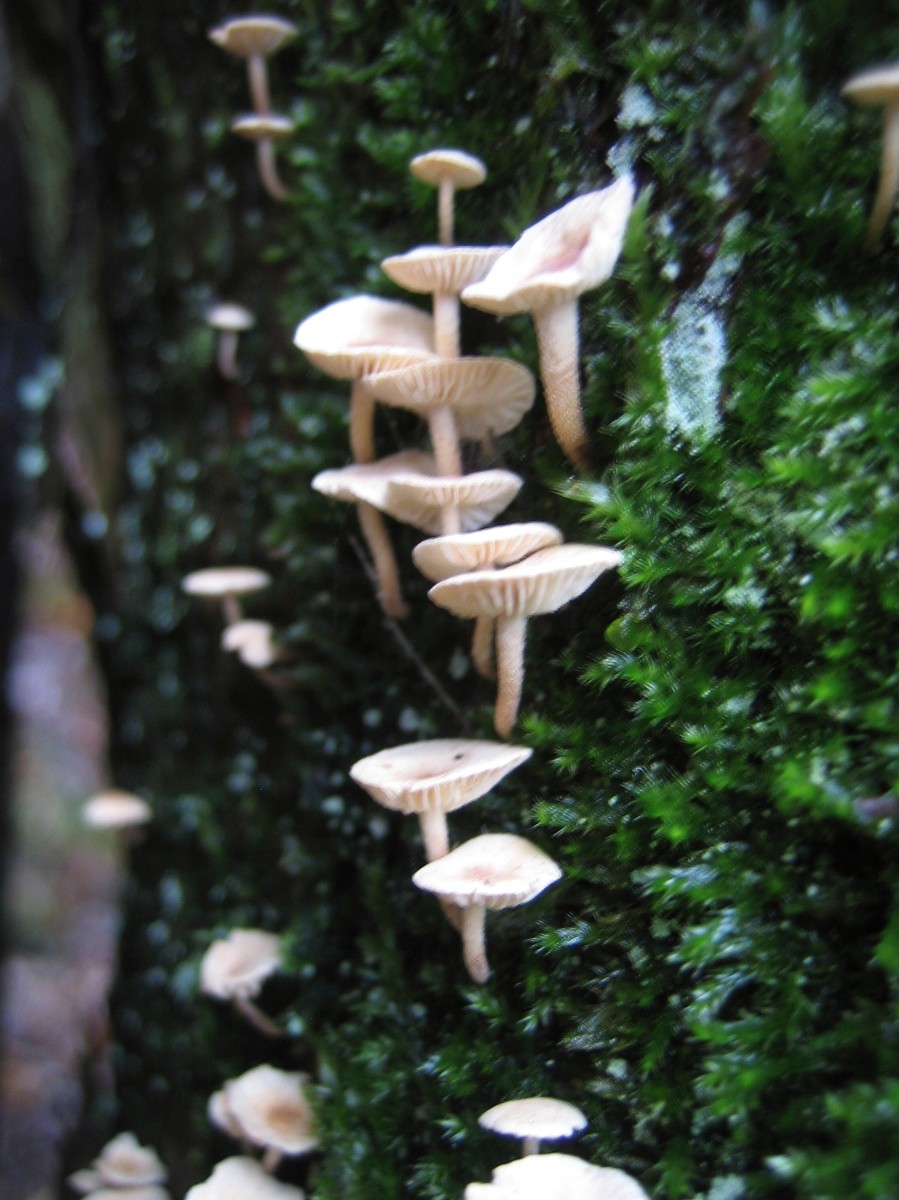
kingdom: Fungi
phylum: Basidiomycota
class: Agaricomycetes
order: Agaricales
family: Omphalotaceae
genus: Collybiopsis
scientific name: Collybiopsis ramealis
